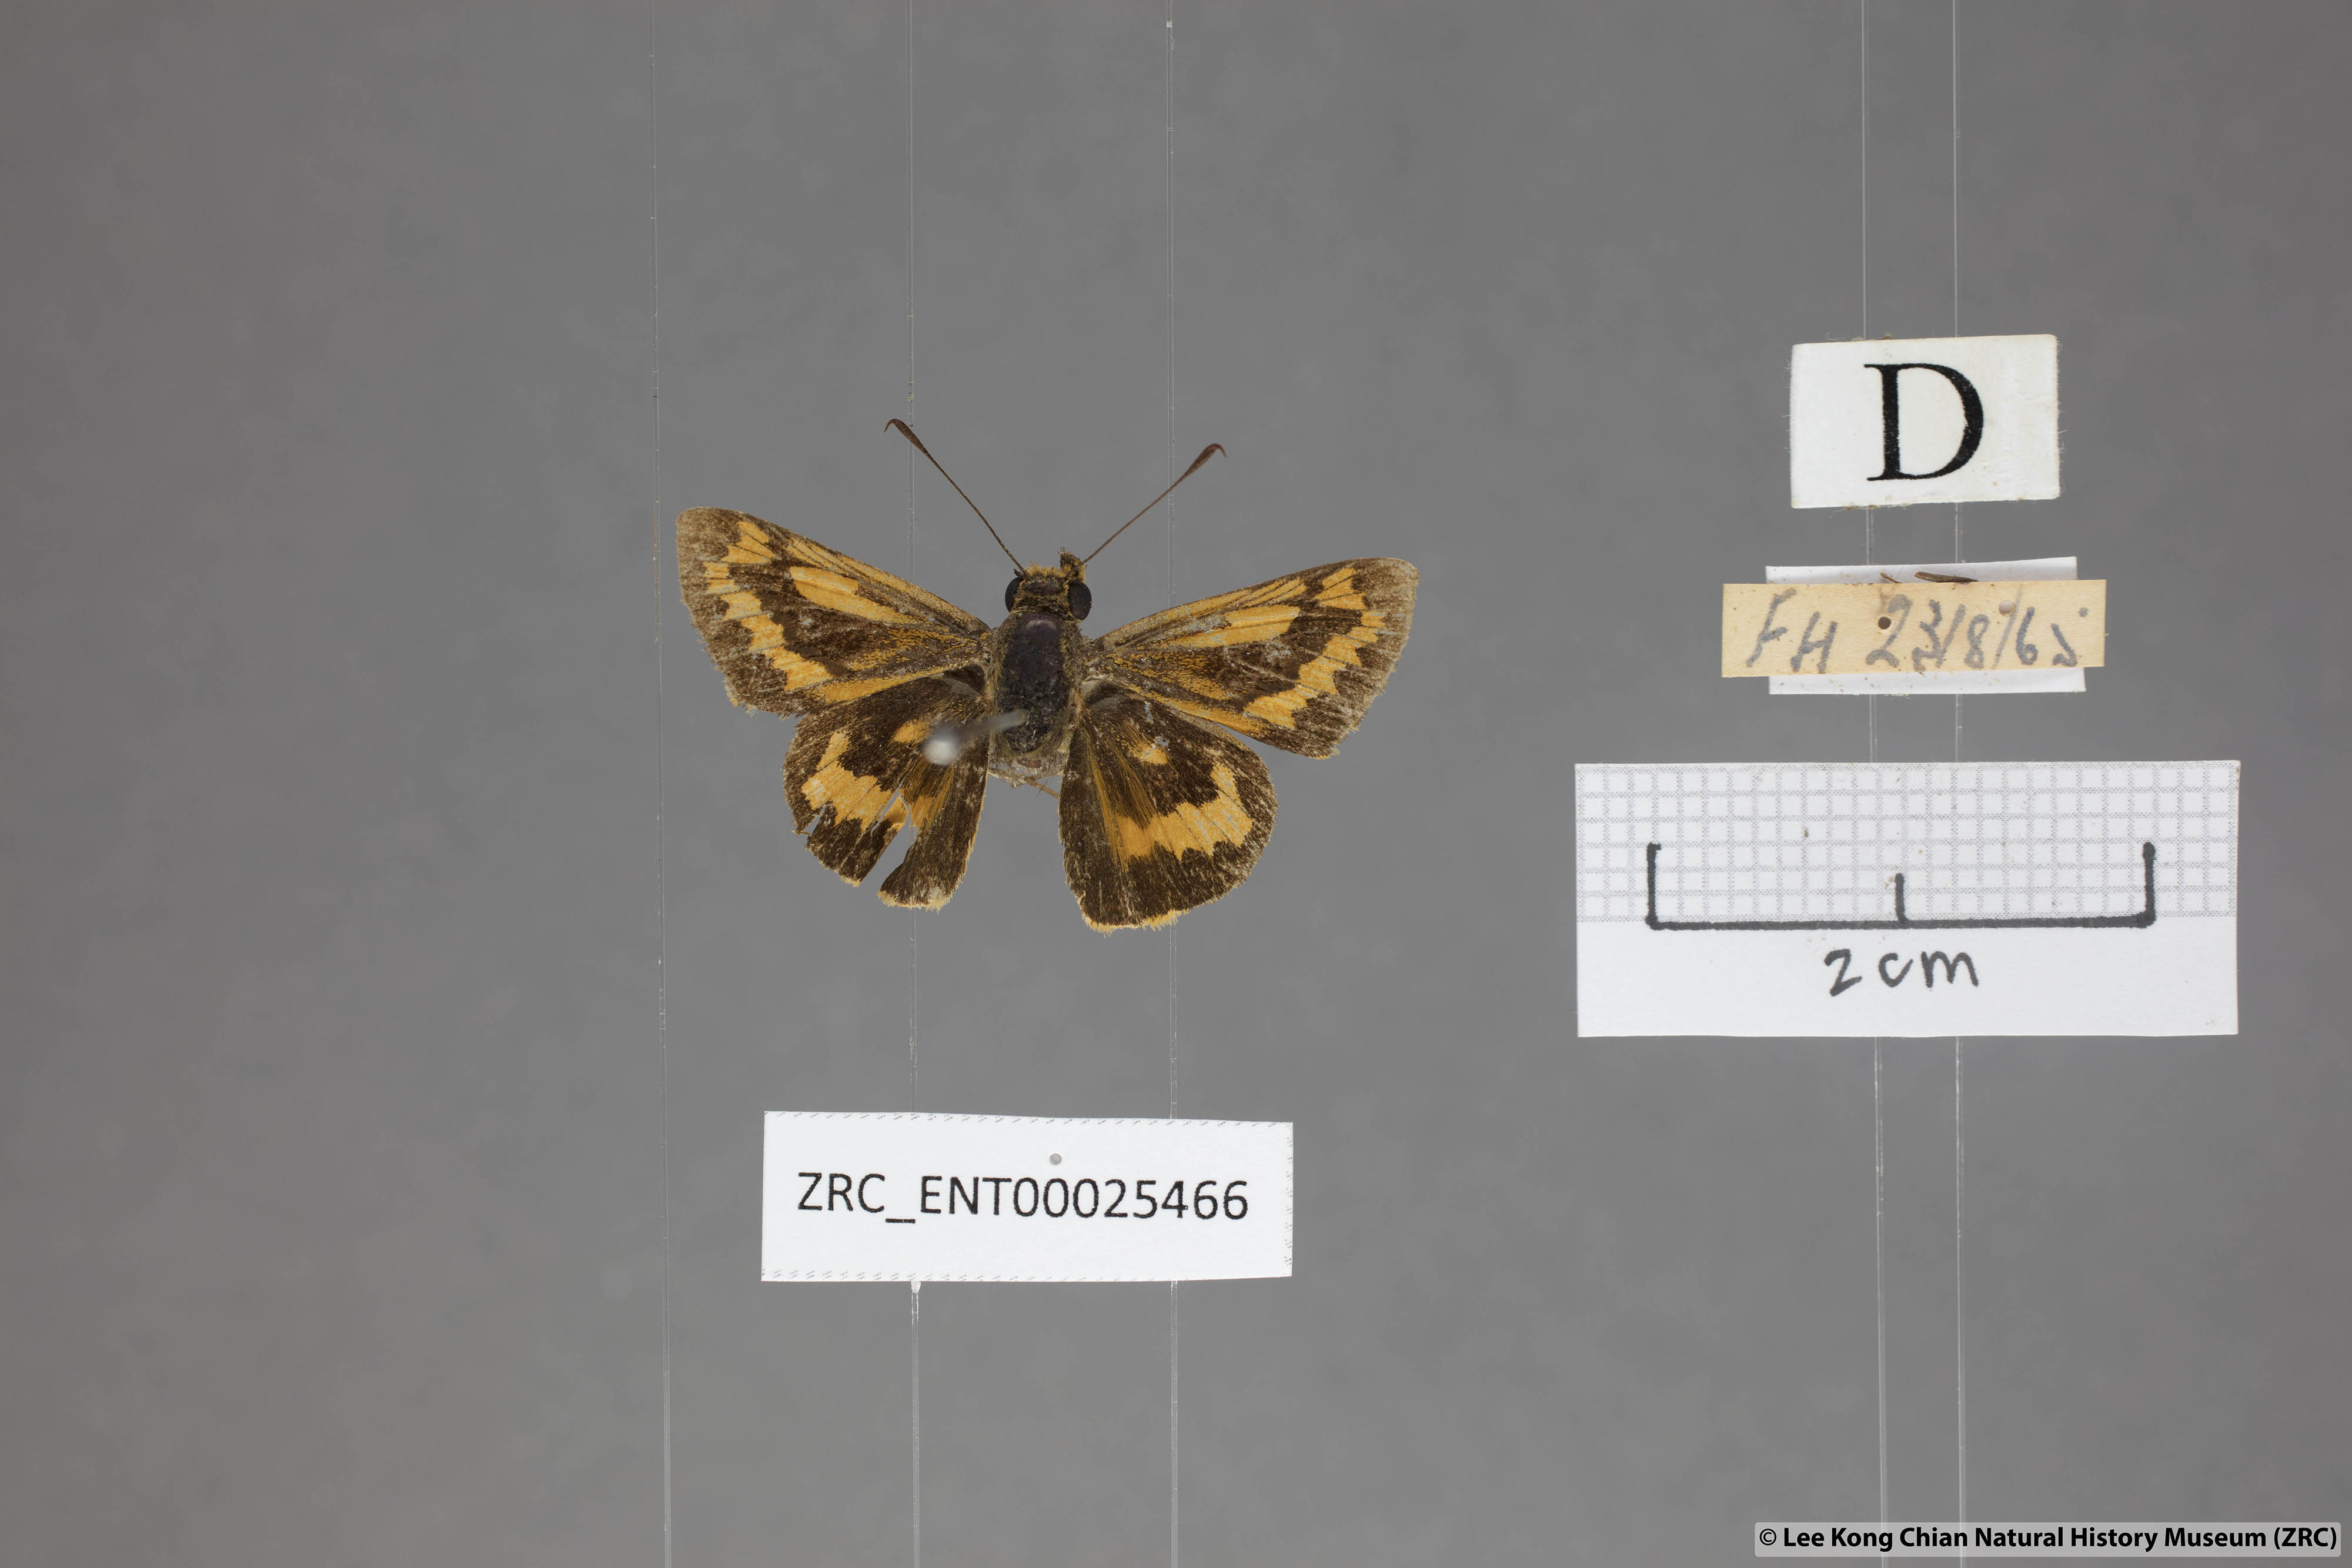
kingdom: Animalia
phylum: Arthropoda
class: Insecta
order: Lepidoptera
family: Hesperiidae
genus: Potanthus
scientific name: Potanthus rectifasciata
